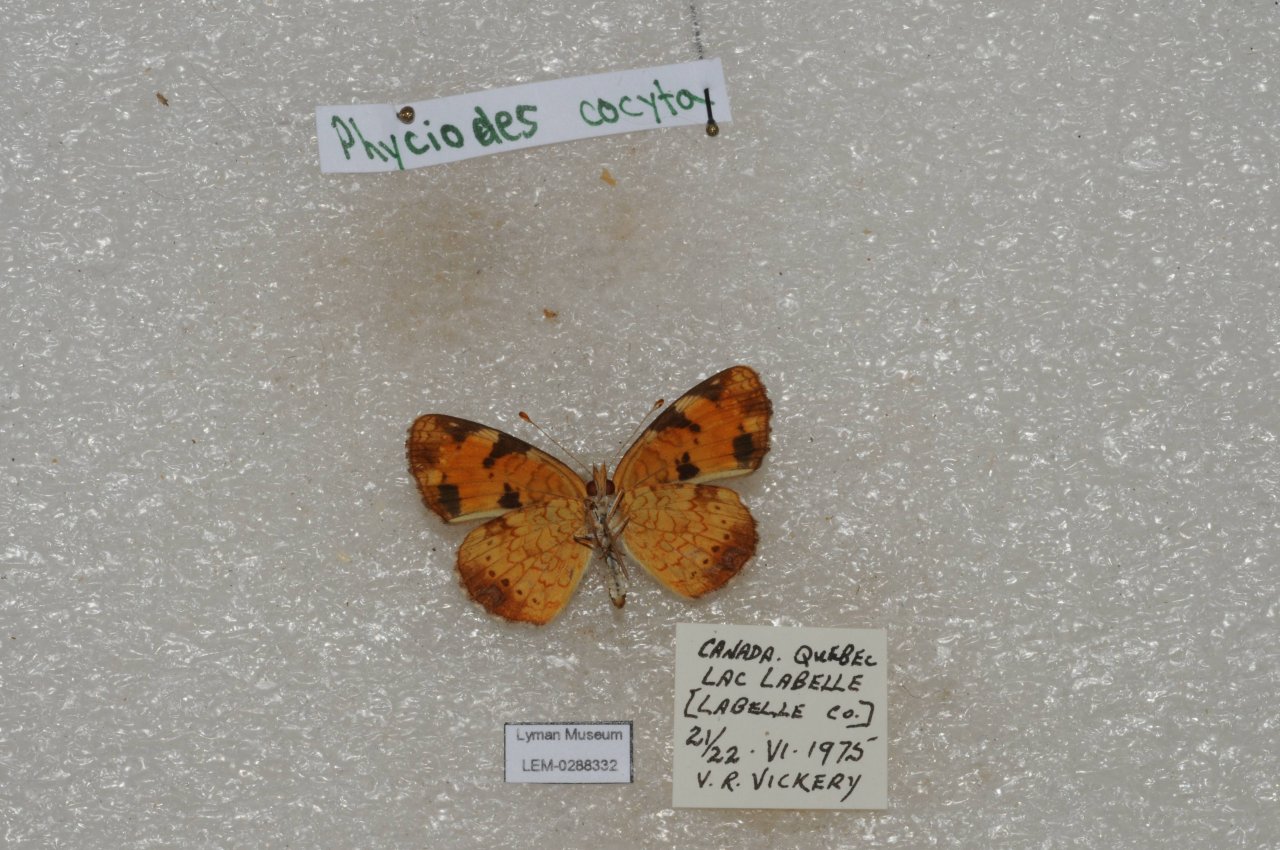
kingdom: Animalia
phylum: Arthropoda
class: Insecta
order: Lepidoptera
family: Nymphalidae
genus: Phyciodes
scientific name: Phyciodes tharos
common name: Northern Crescent
